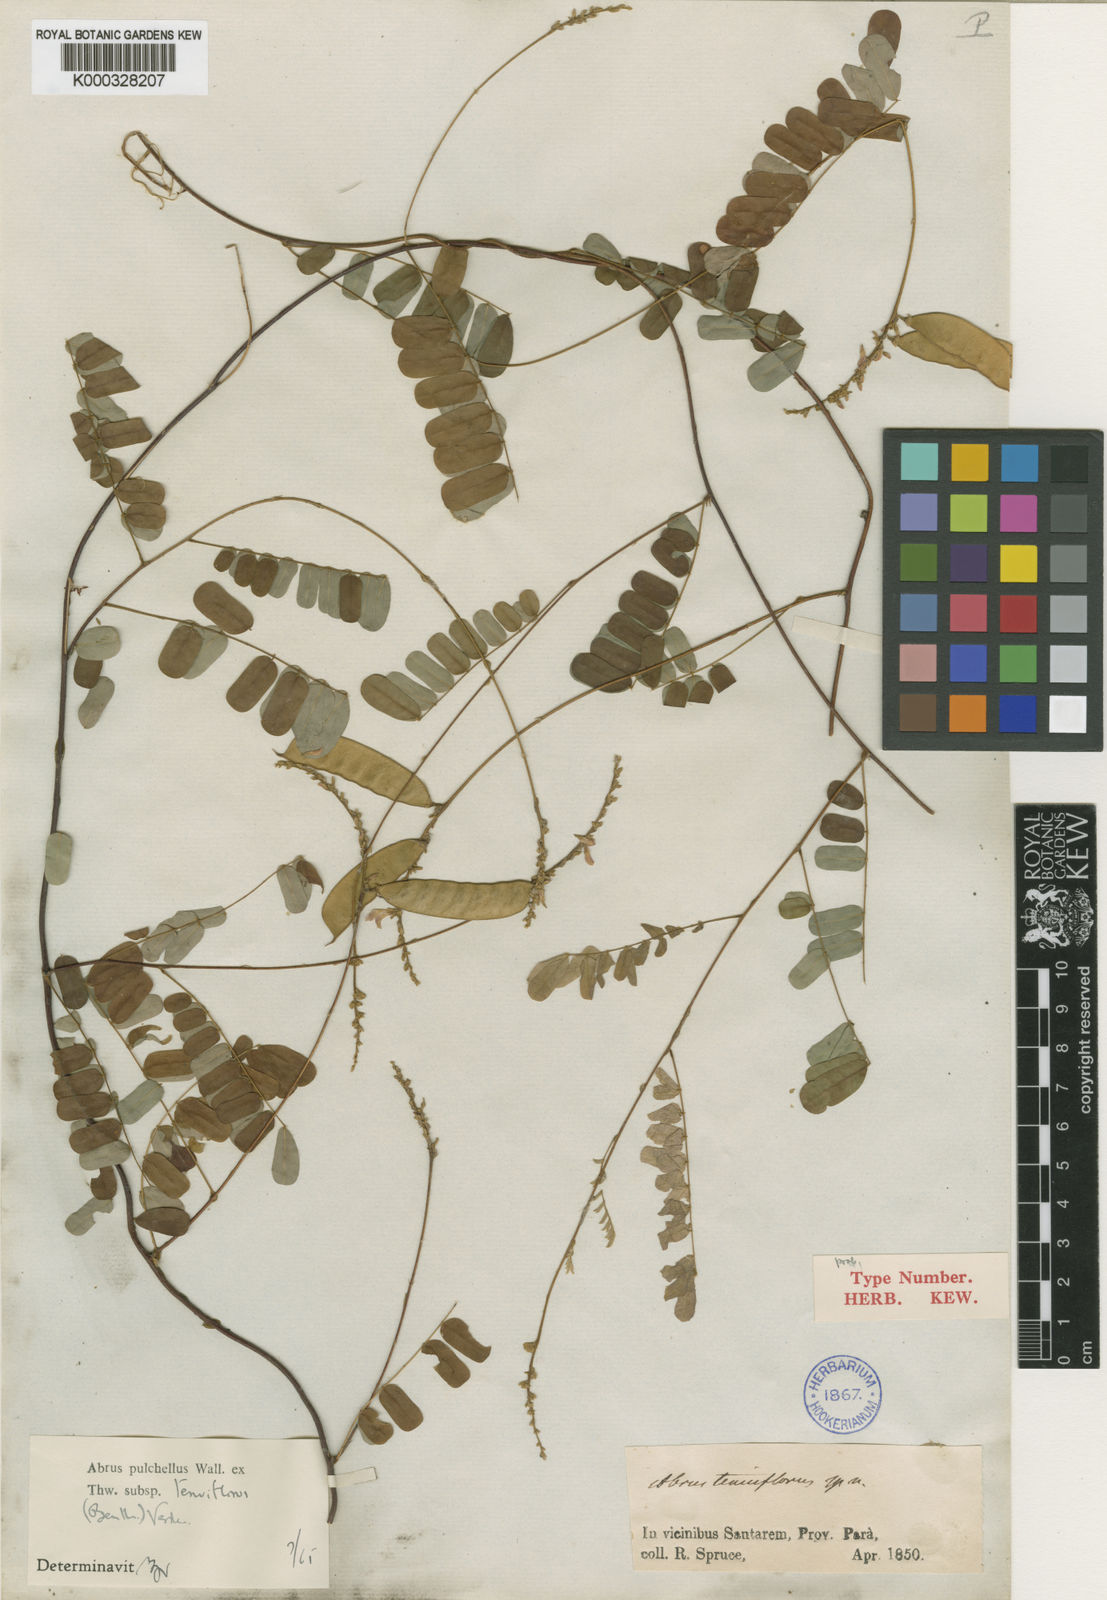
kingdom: Plantae
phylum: Tracheophyta
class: Magnoliopsida
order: Fabales
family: Fabaceae
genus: Abrus
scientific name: Abrus melanospermus
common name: Licorice-root
